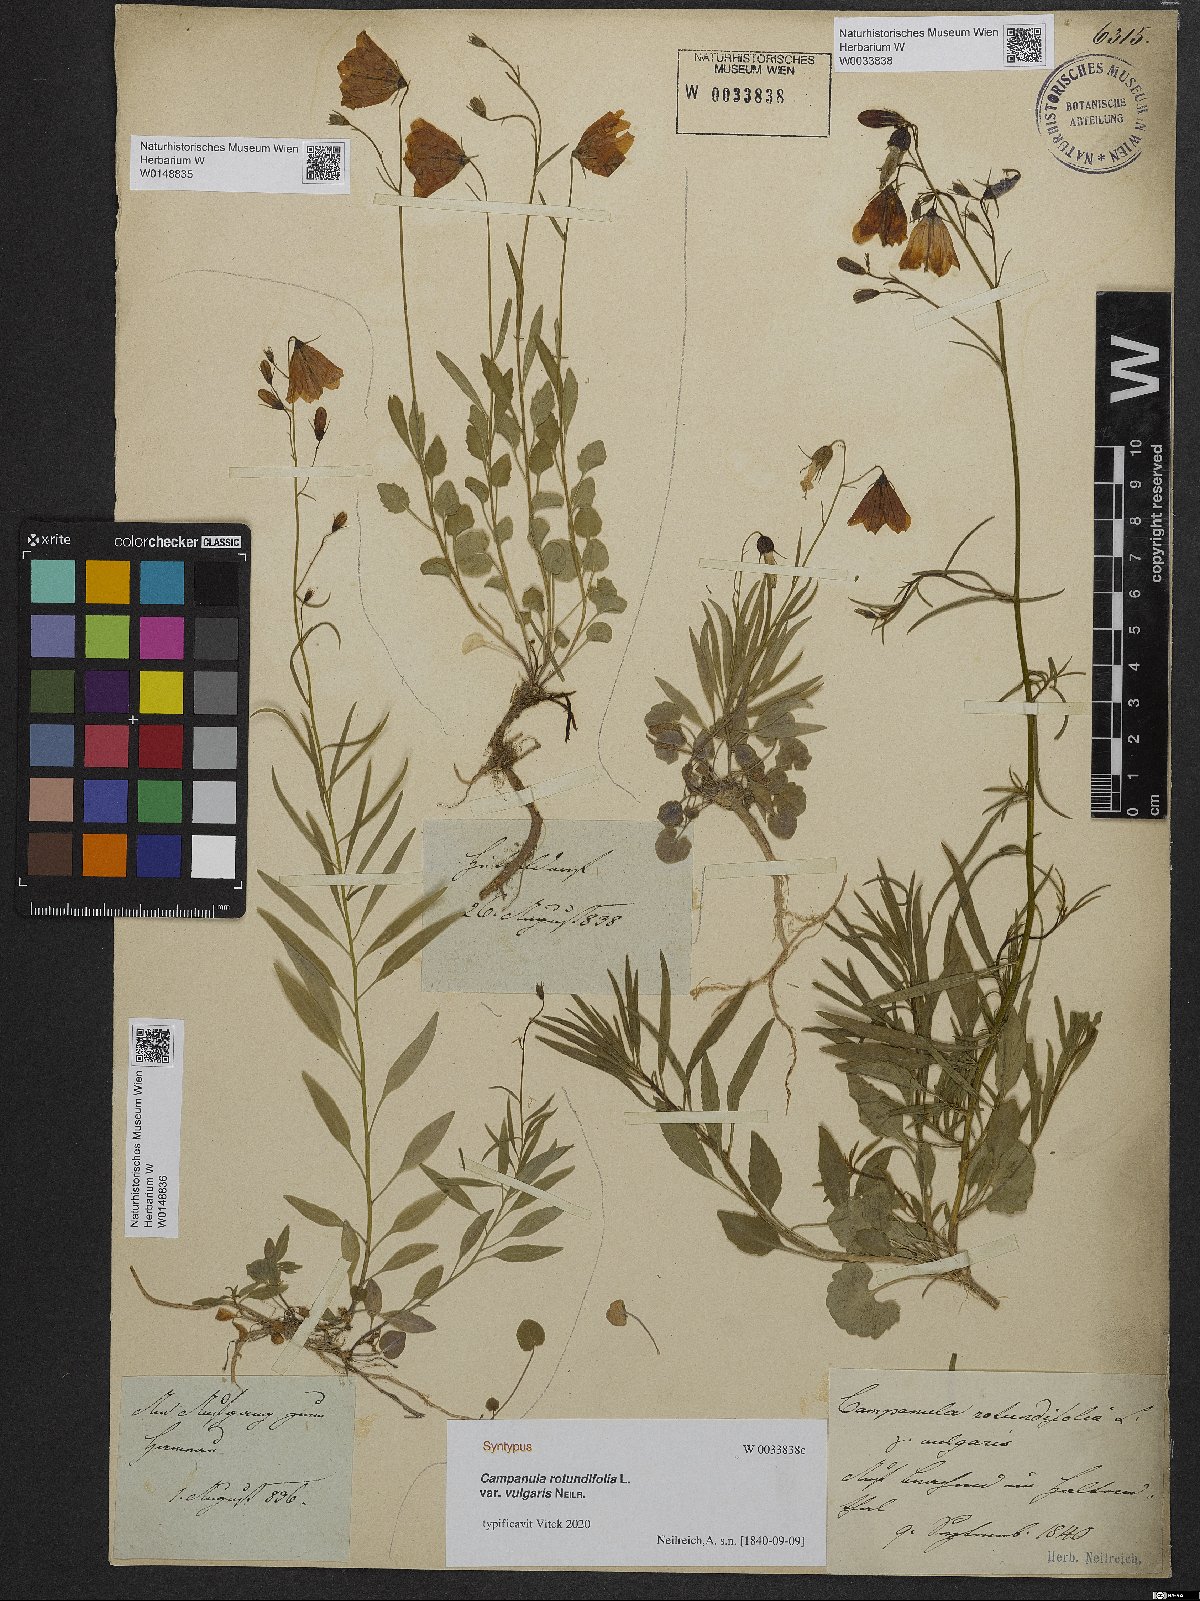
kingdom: Plantae
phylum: Tracheophyta
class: Magnoliopsida
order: Asterales
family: Campanulaceae
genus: Campanula
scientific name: Campanula rotundifolia
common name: Harebell
